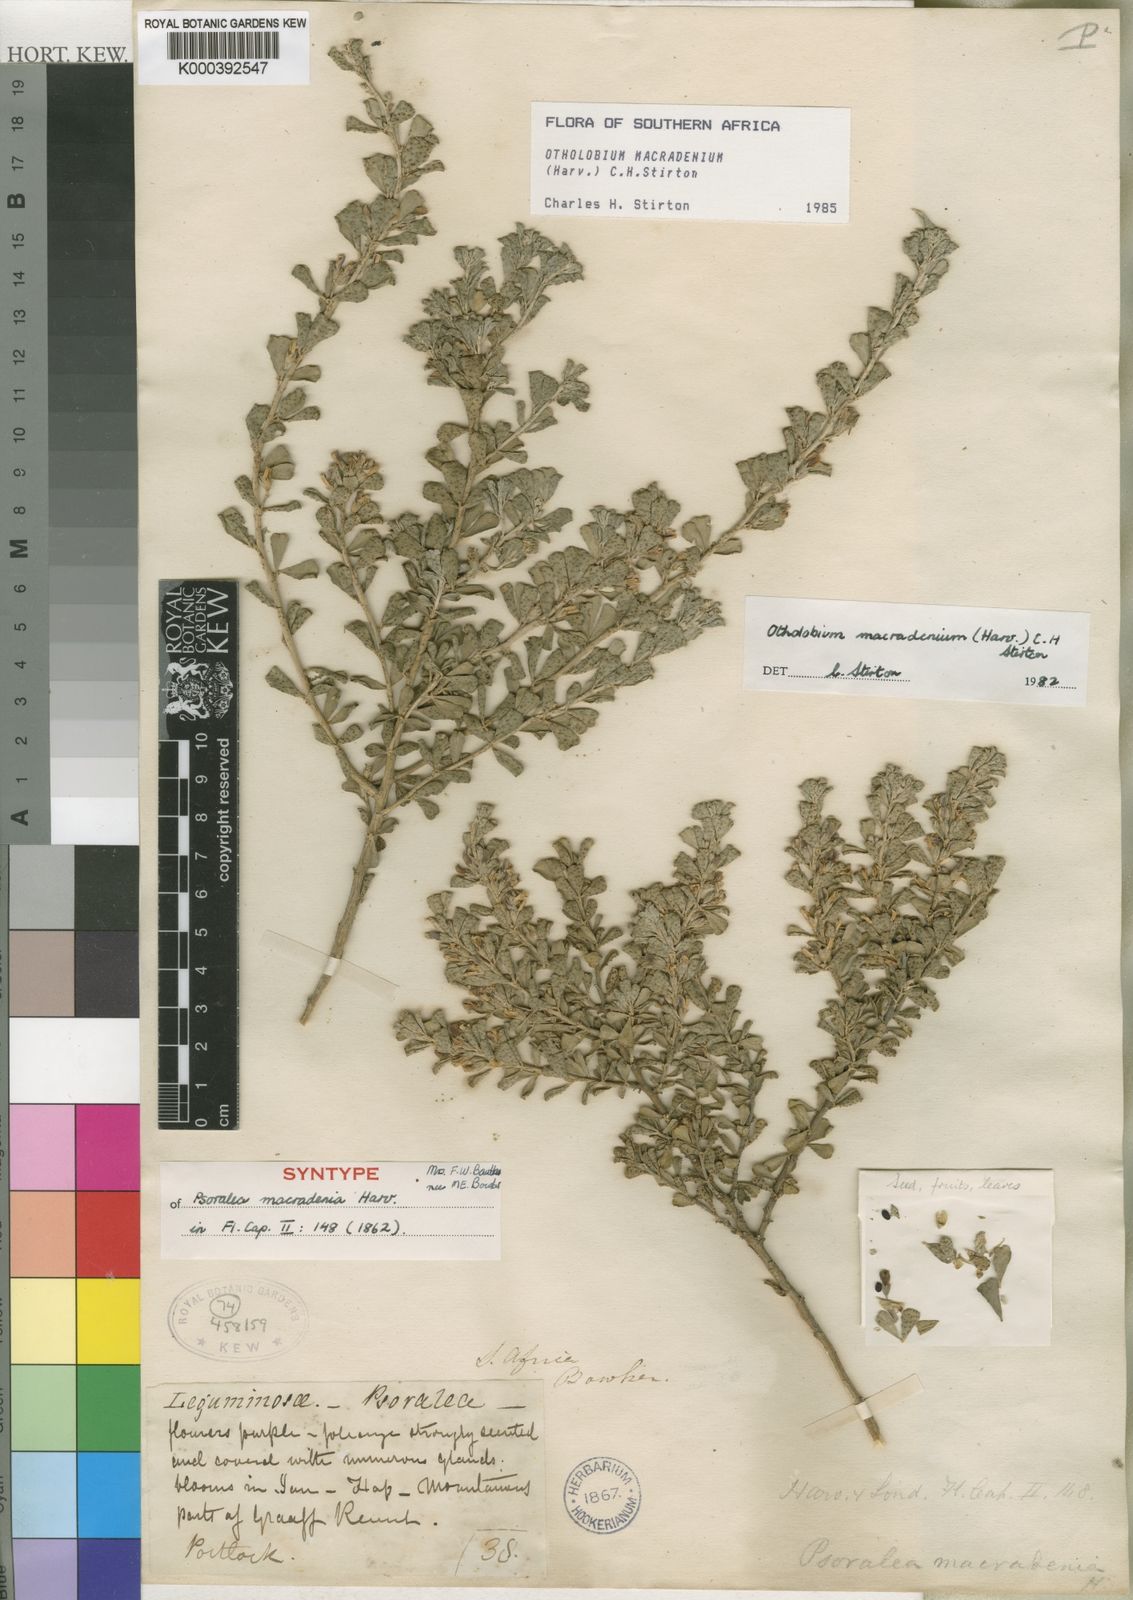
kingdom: Plantae
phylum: Tracheophyta
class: Magnoliopsida
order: Fabales
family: Fabaceae
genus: Psoralea
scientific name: Psoralea velutina
